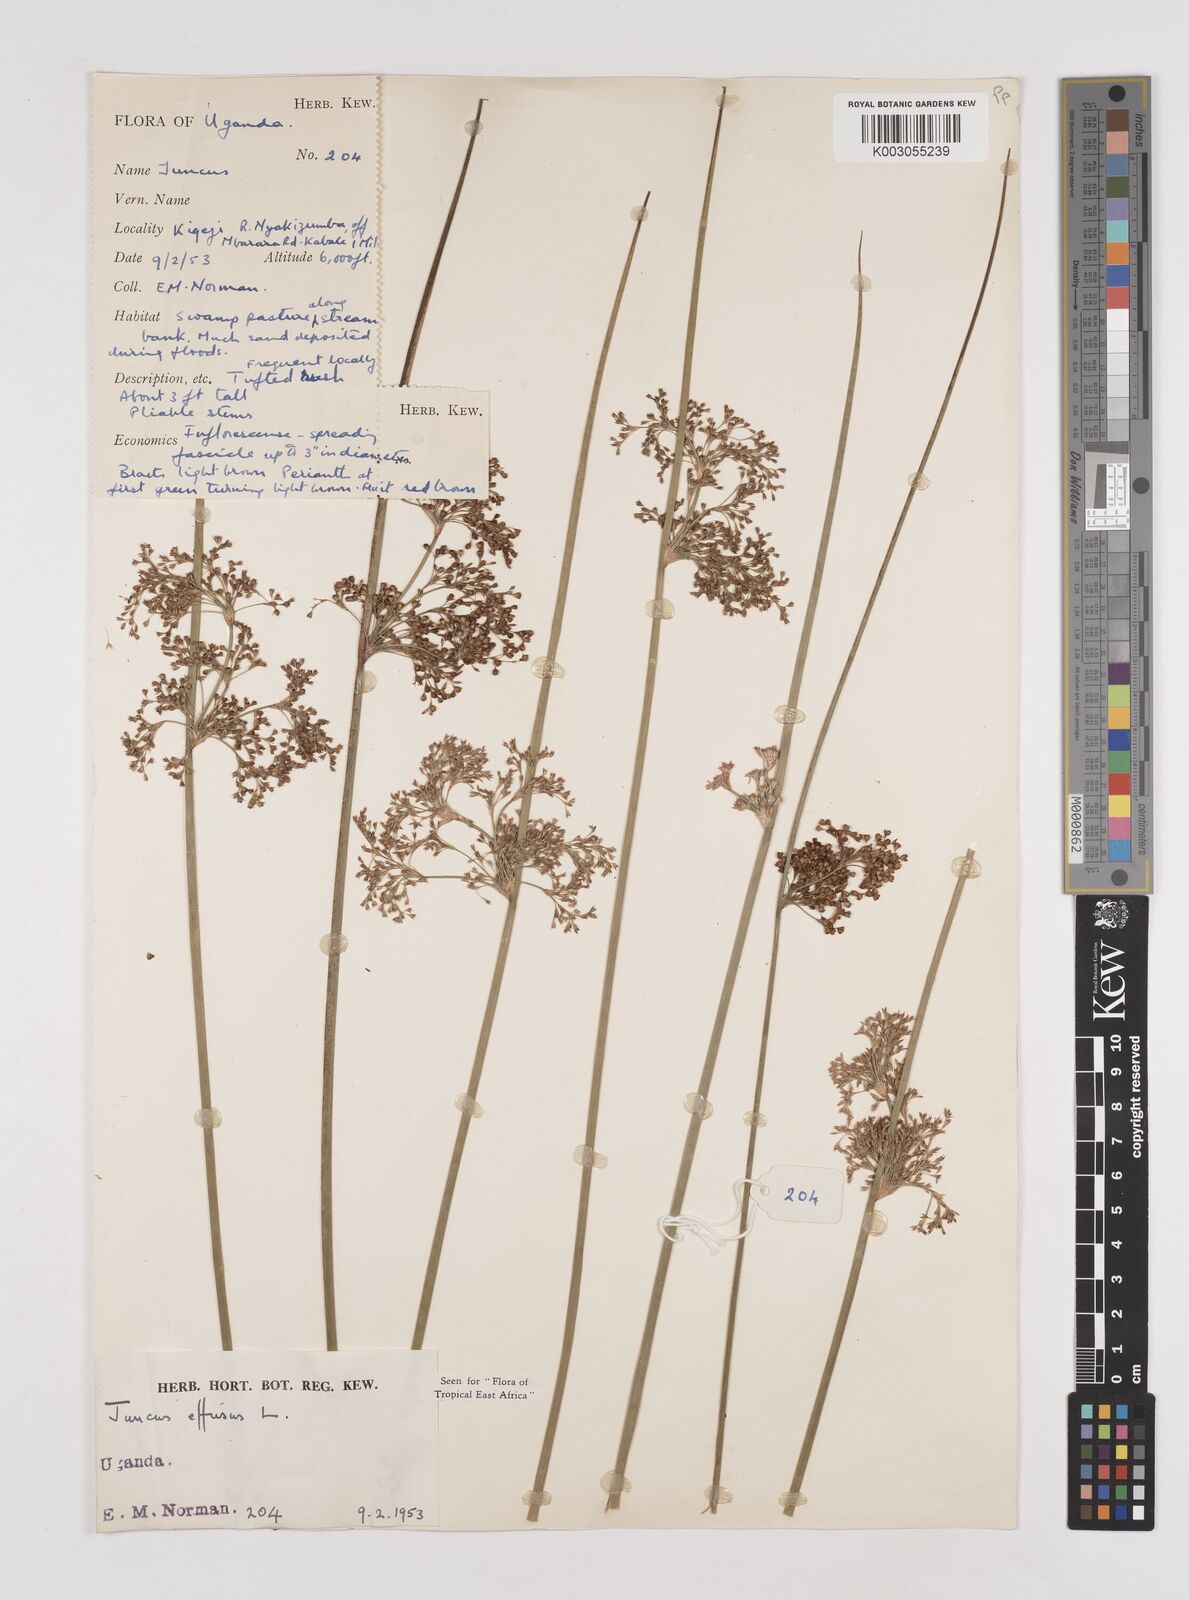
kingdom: Plantae
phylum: Tracheophyta
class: Liliopsida
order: Poales
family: Juncaceae
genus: Juncus
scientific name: Juncus effusus
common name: Soft rush
